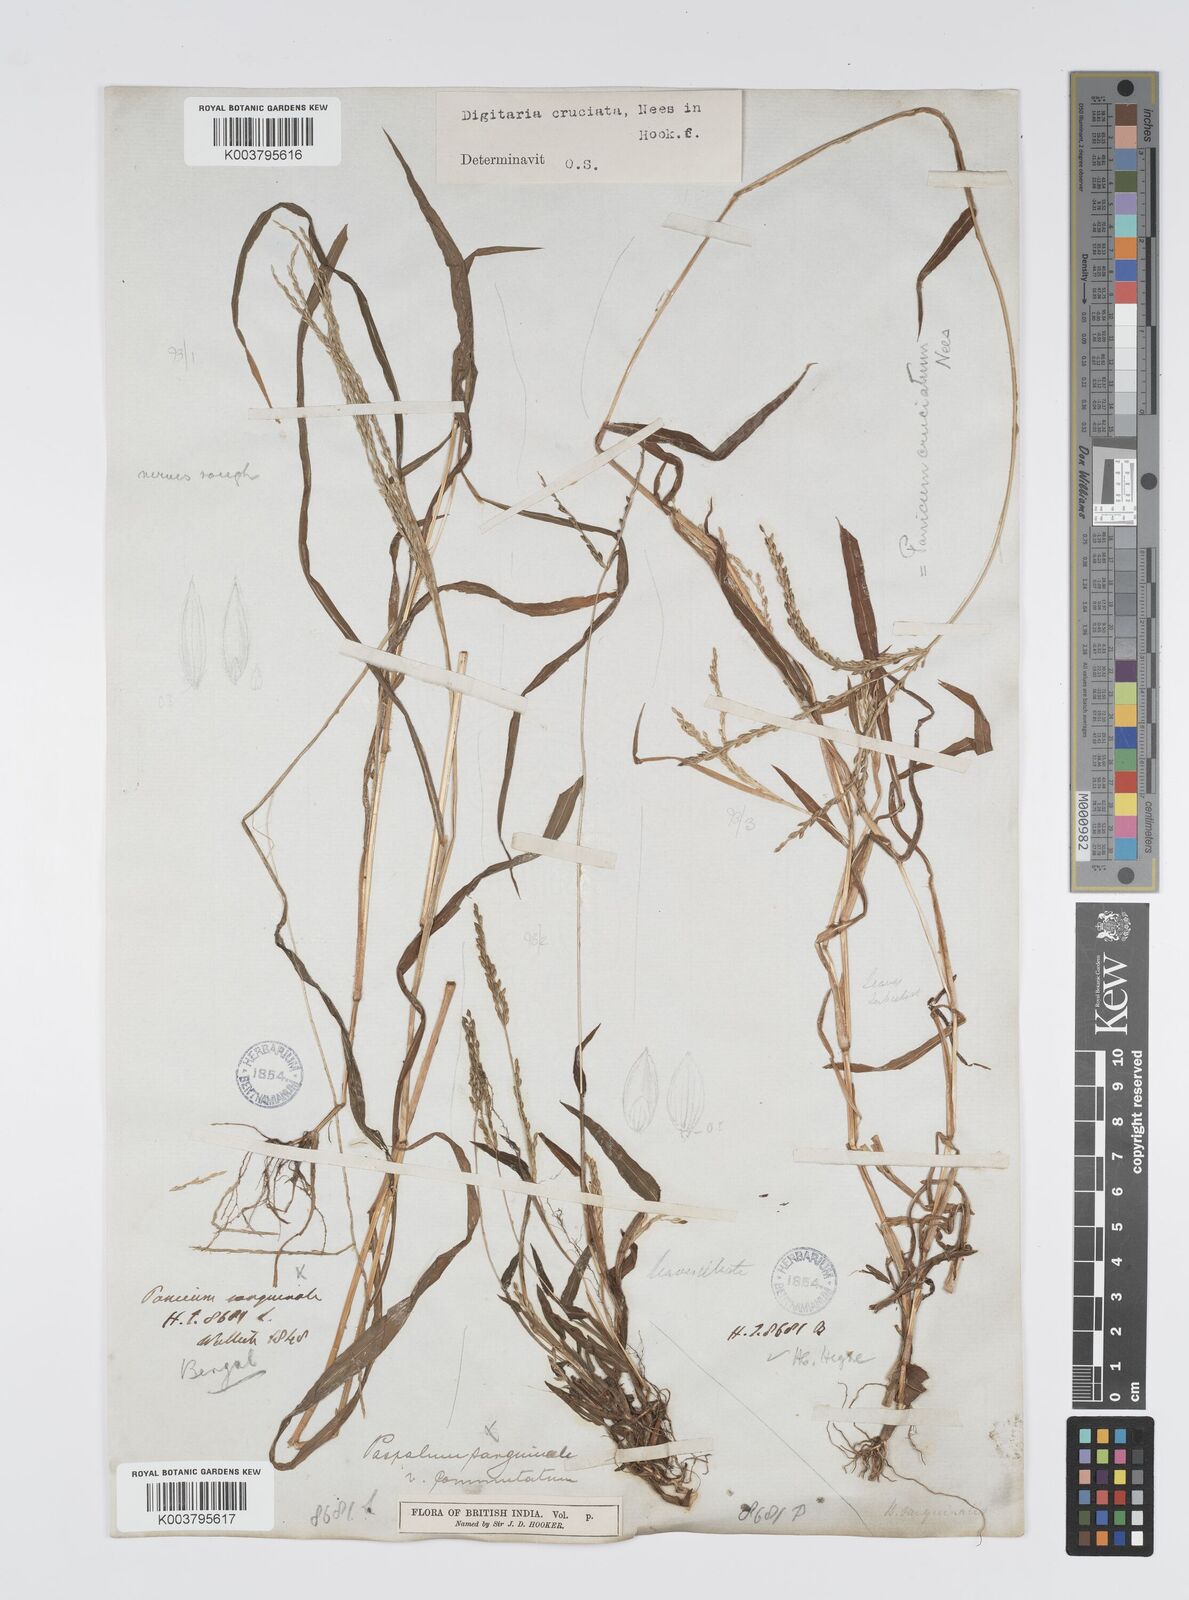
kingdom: Plantae
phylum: Tracheophyta
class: Liliopsida
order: Poales
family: Poaceae
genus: Digitaria
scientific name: Digitaria sanguinalis
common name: Hairy crabgrass
